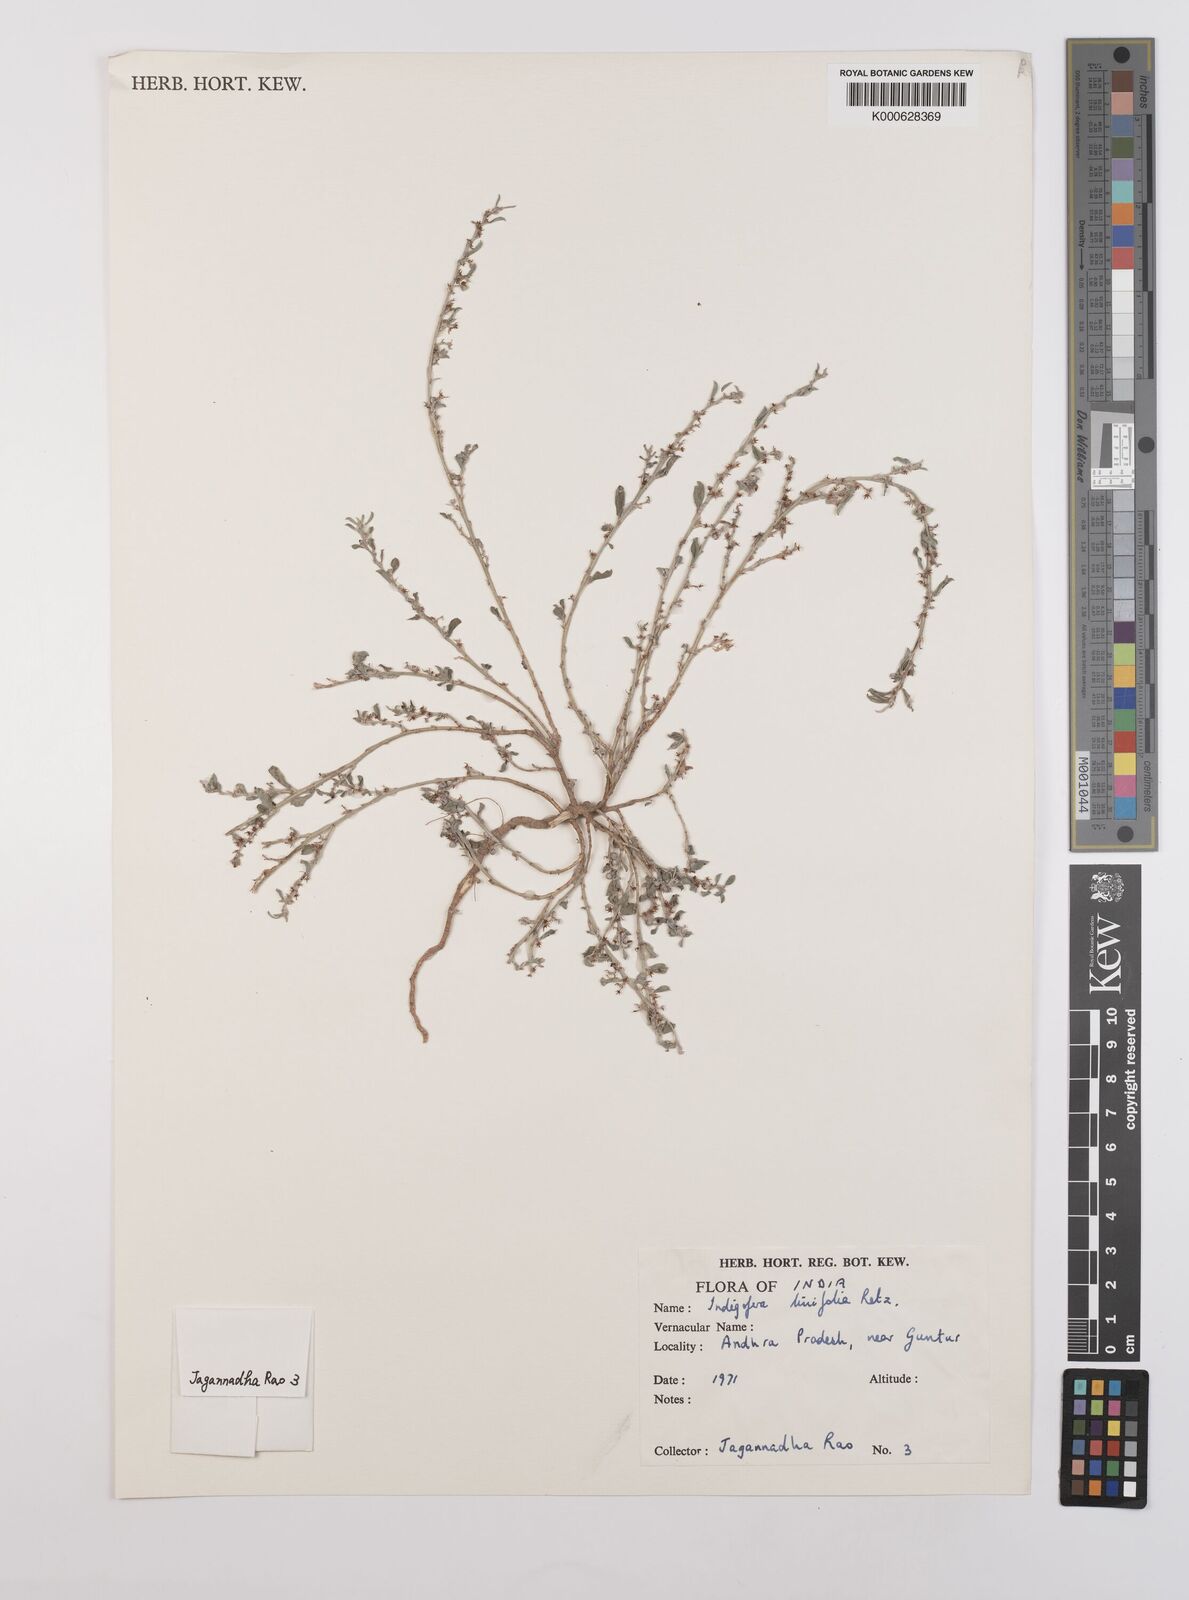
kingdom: Plantae
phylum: Tracheophyta
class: Magnoliopsida
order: Fabales
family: Fabaceae
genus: Indigofera
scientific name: Indigofera linifolia
